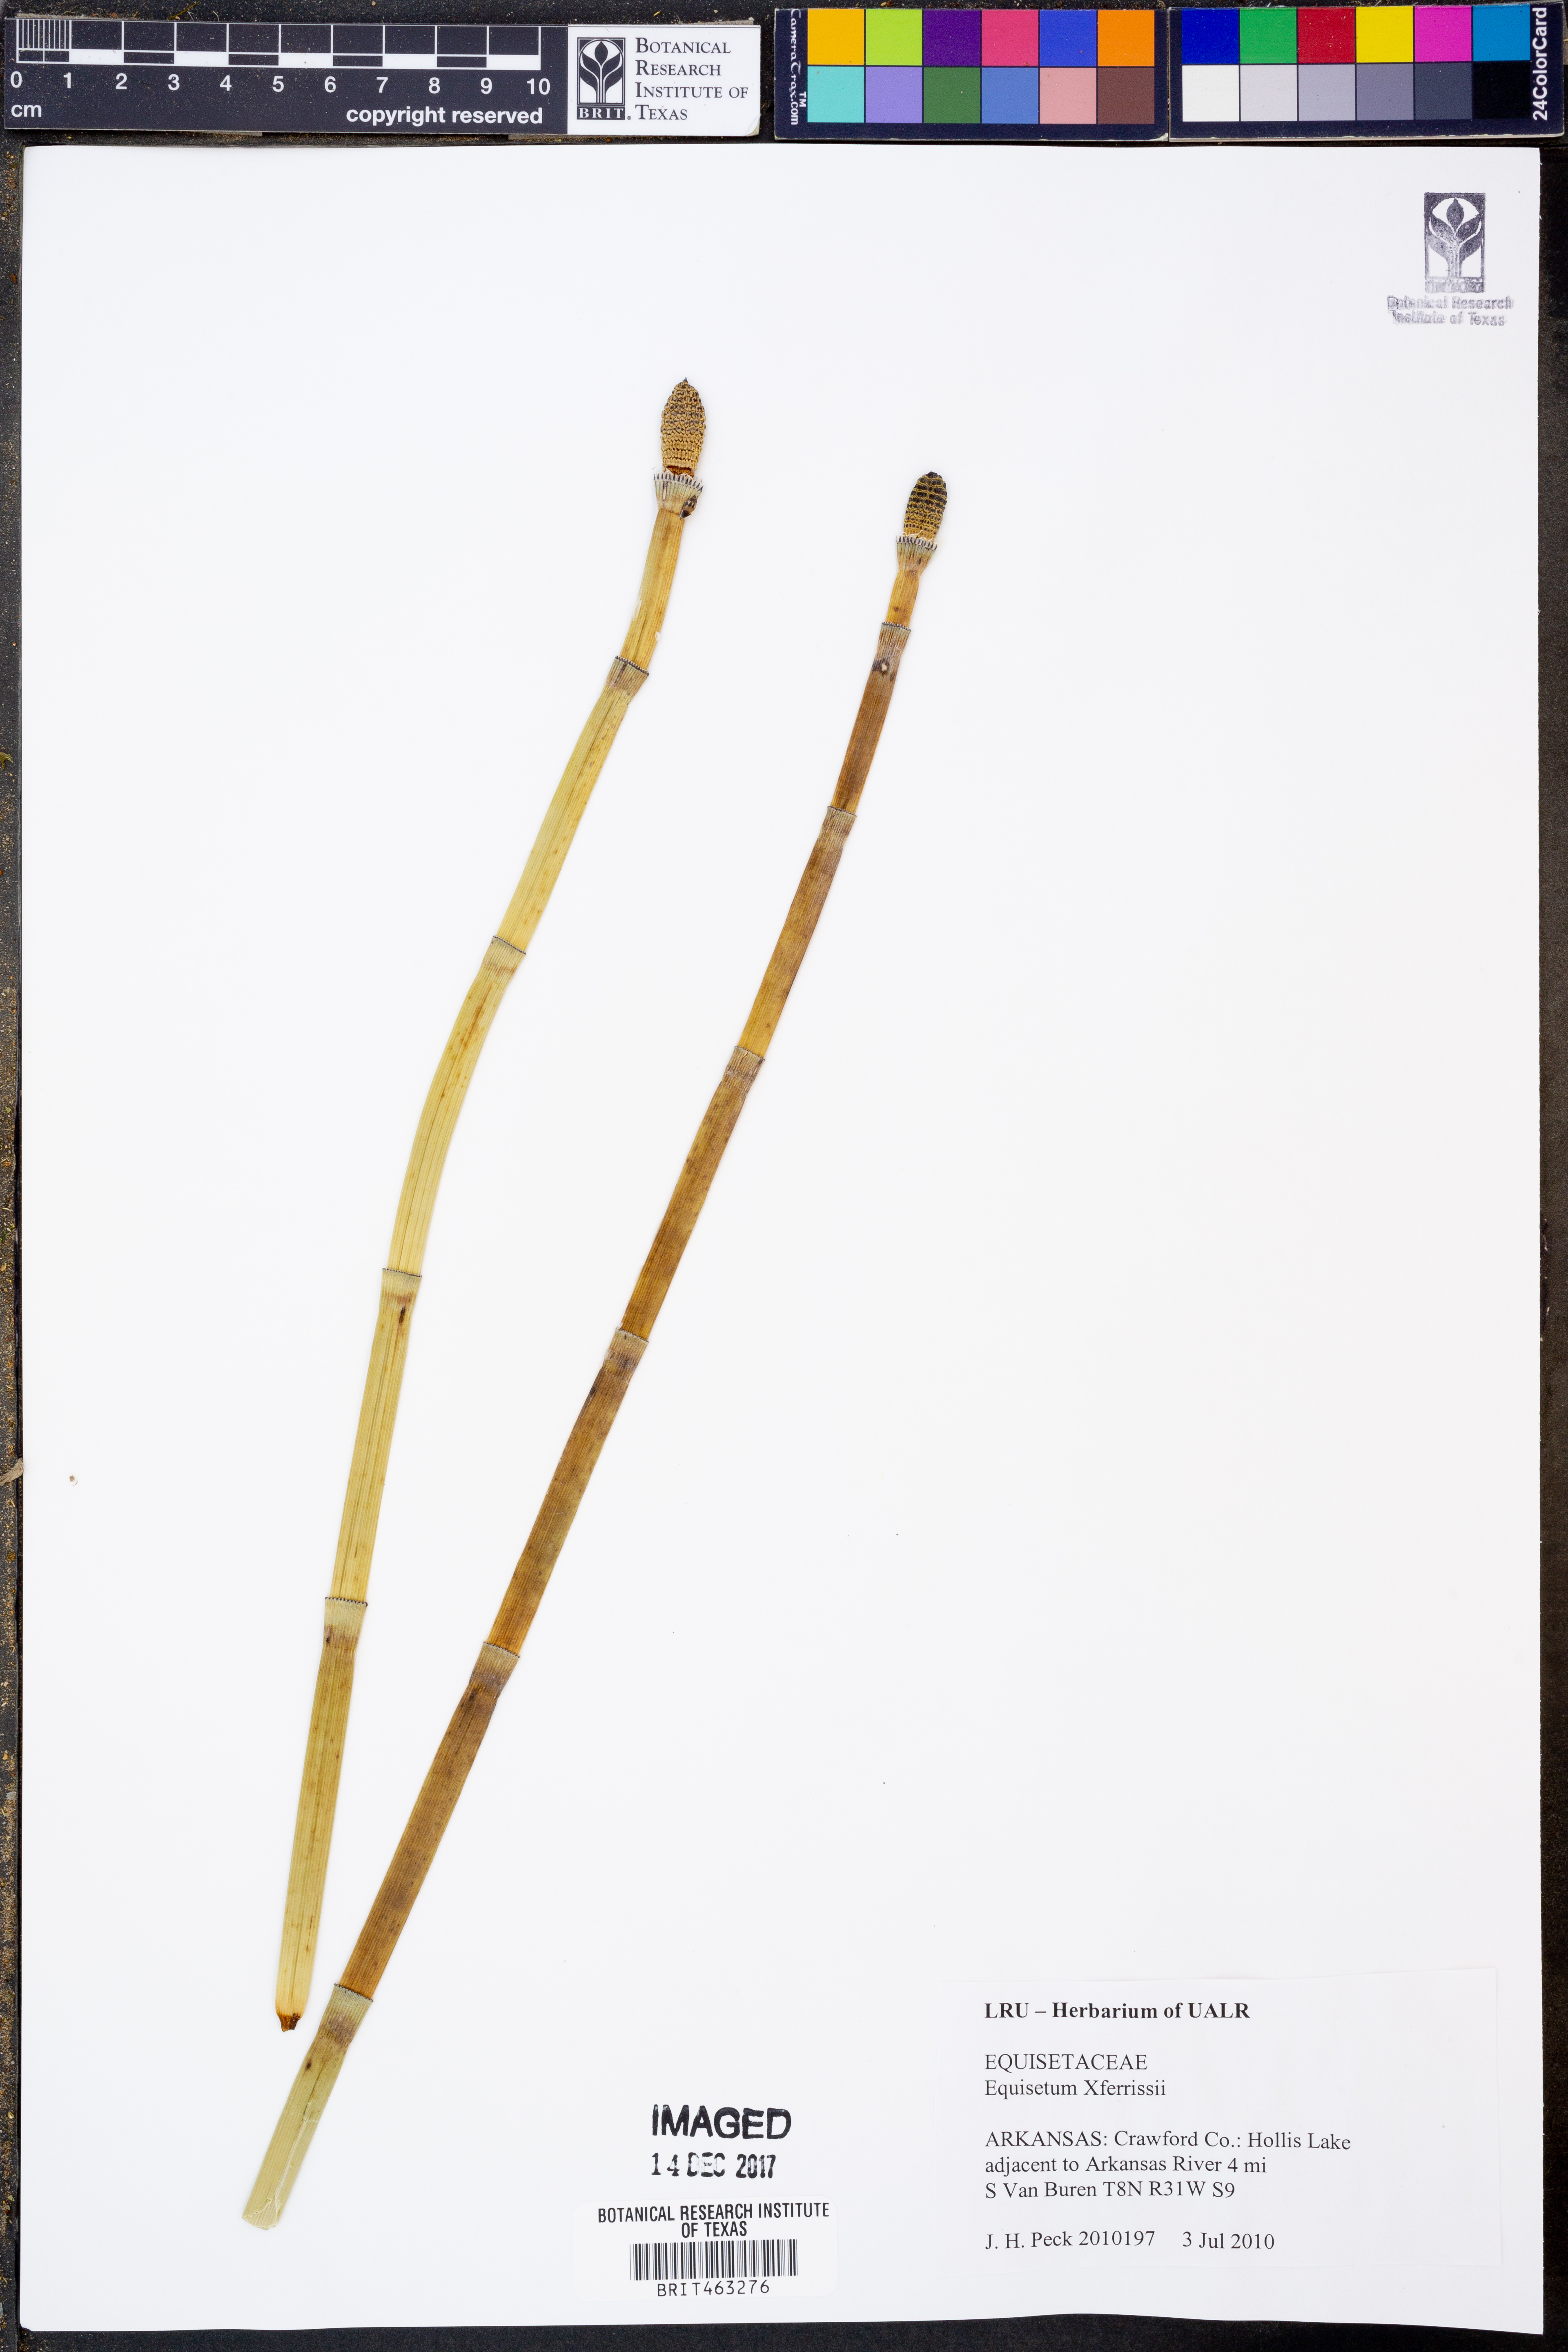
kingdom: Plantae
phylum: Tracheophyta
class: Polypodiopsida
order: Equisetales
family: Equisetaceae
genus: Equisetum
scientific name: Equisetum ferrissii
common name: Ferriss' horsetail
